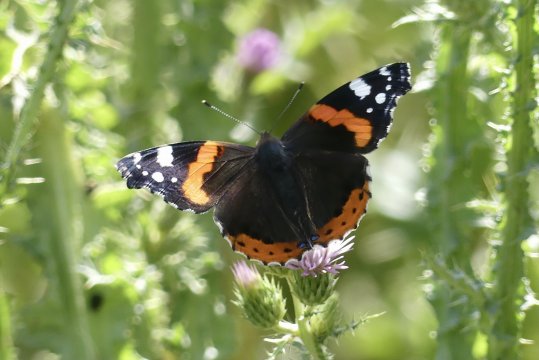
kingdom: Animalia
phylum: Arthropoda
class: Insecta
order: Lepidoptera
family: Nymphalidae
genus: Vanessa
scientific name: Vanessa atalanta
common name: Red Admiral
